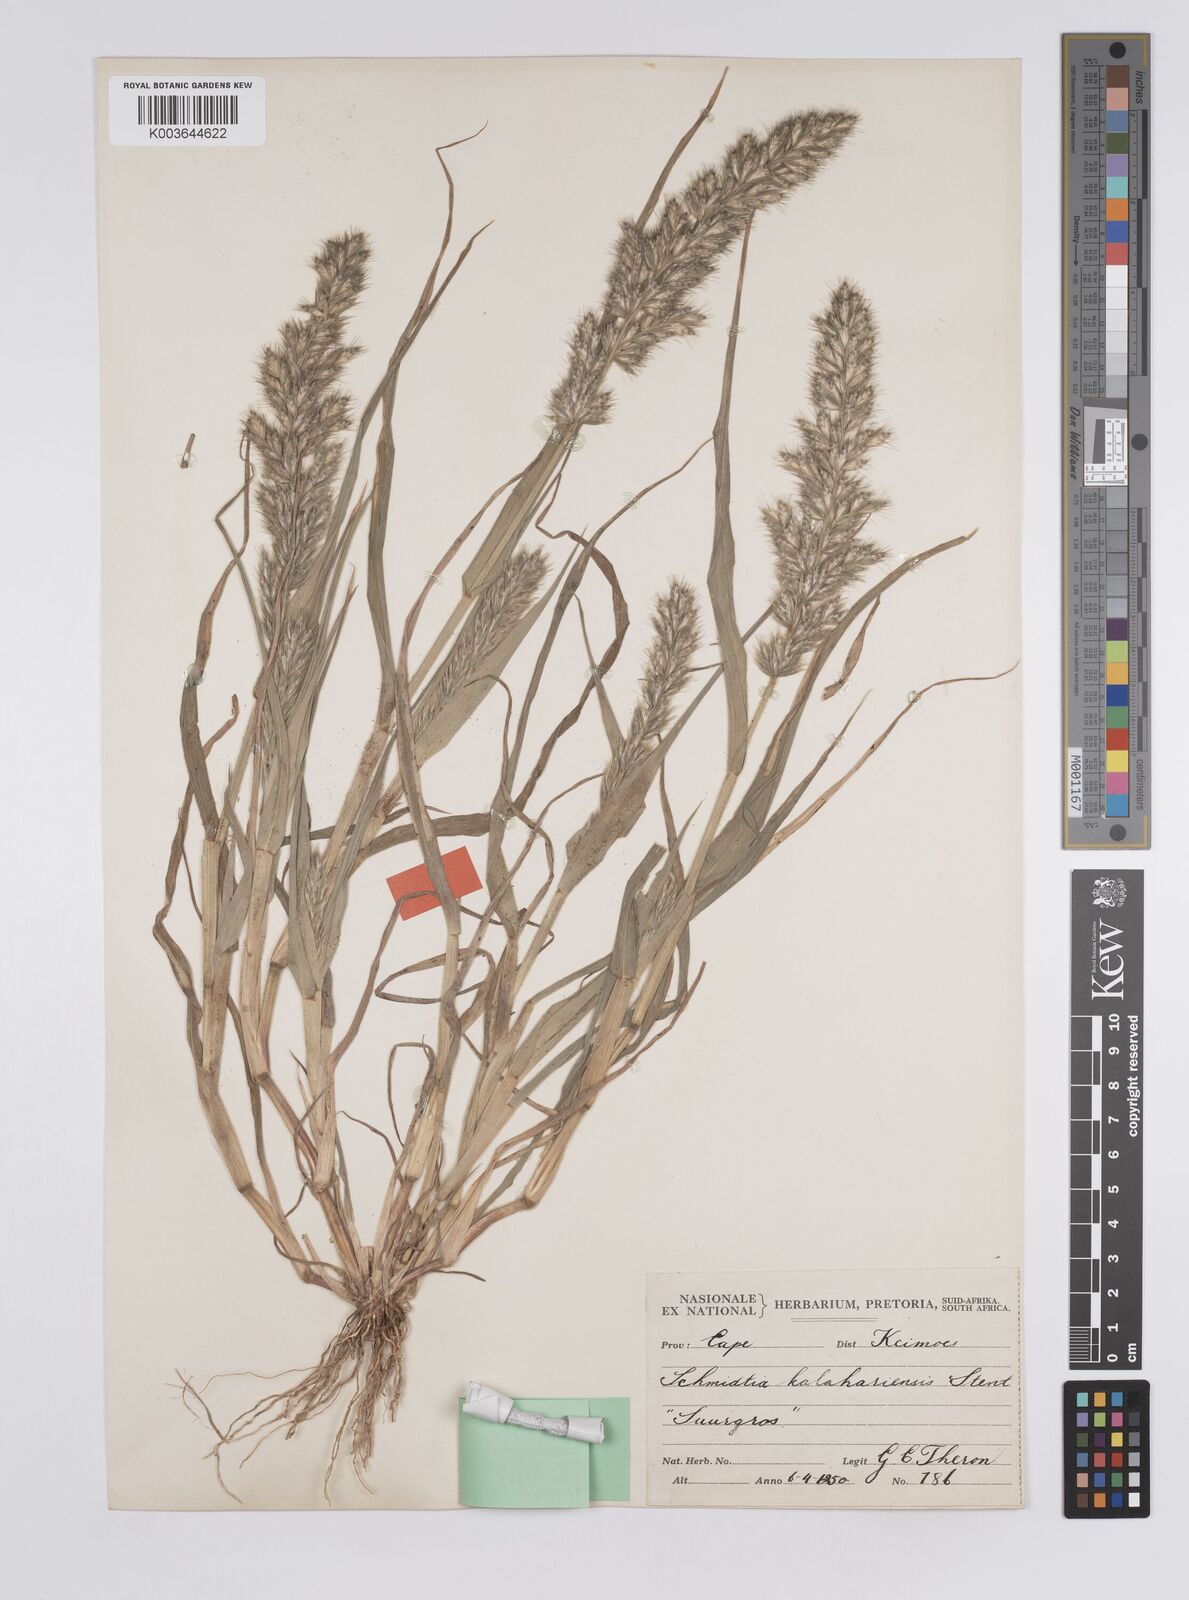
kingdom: Plantae
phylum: Tracheophyta
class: Liliopsida
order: Poales
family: Poaceae
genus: Schmidtia
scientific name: Schmidtia kalahariensis
